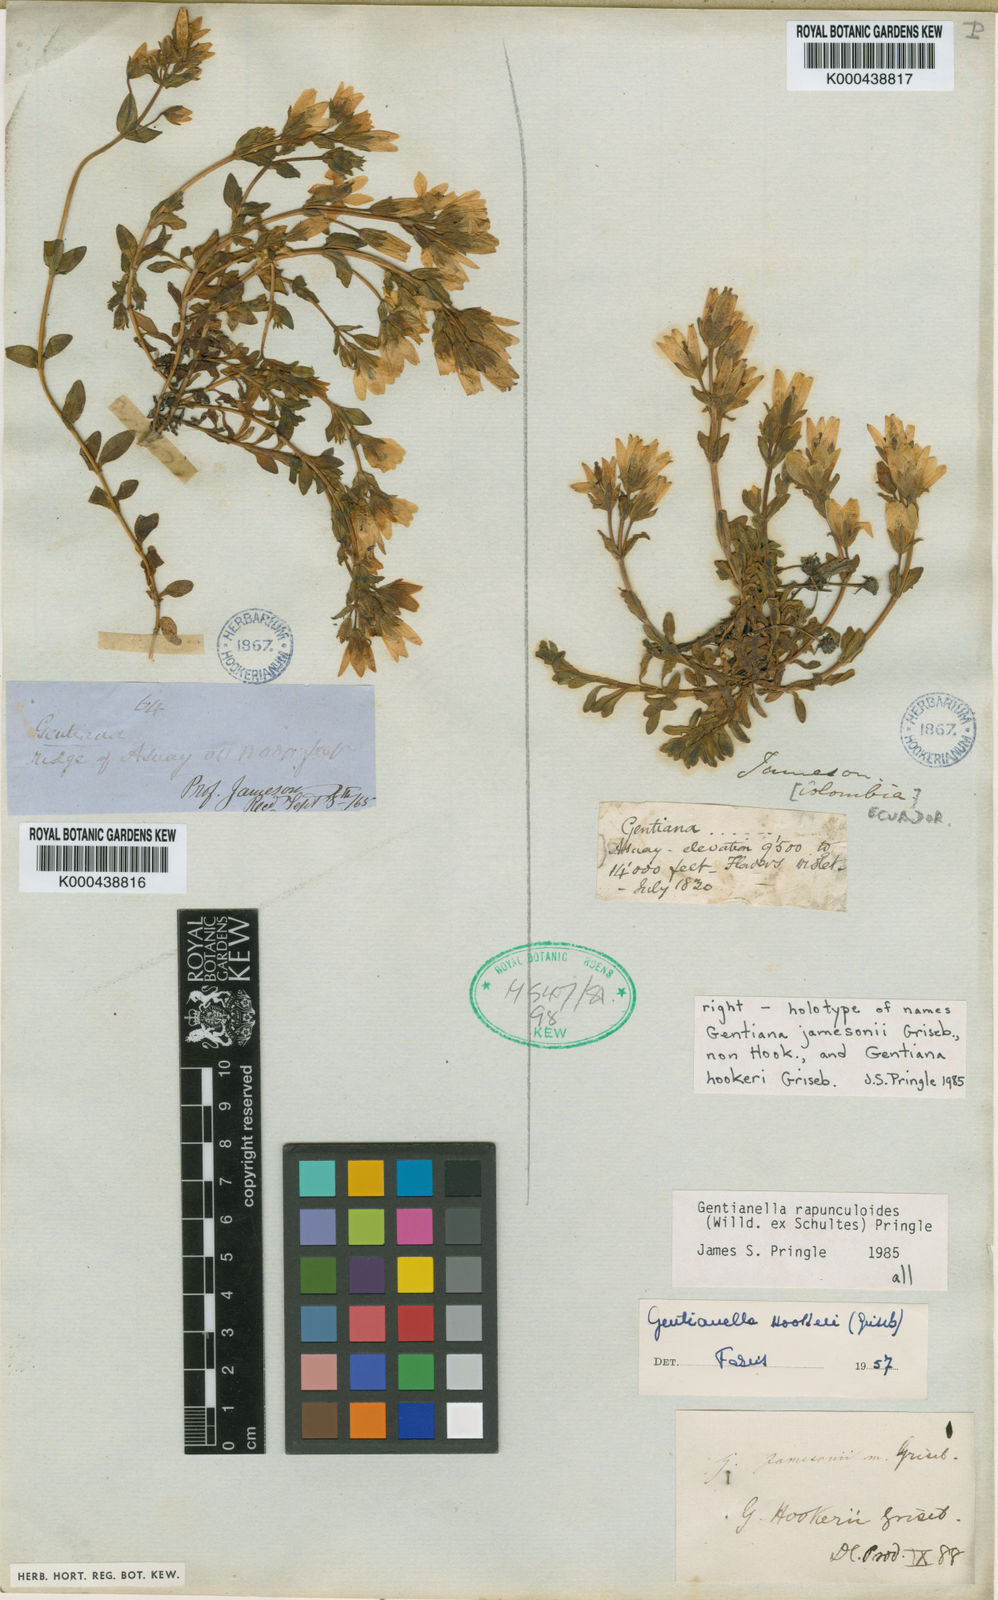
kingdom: Plantae
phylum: Tracheophyta
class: Magnoliopsida
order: Gentianales
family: Gentianaceae
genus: Gentianella
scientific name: Gentianella rapunculoides
